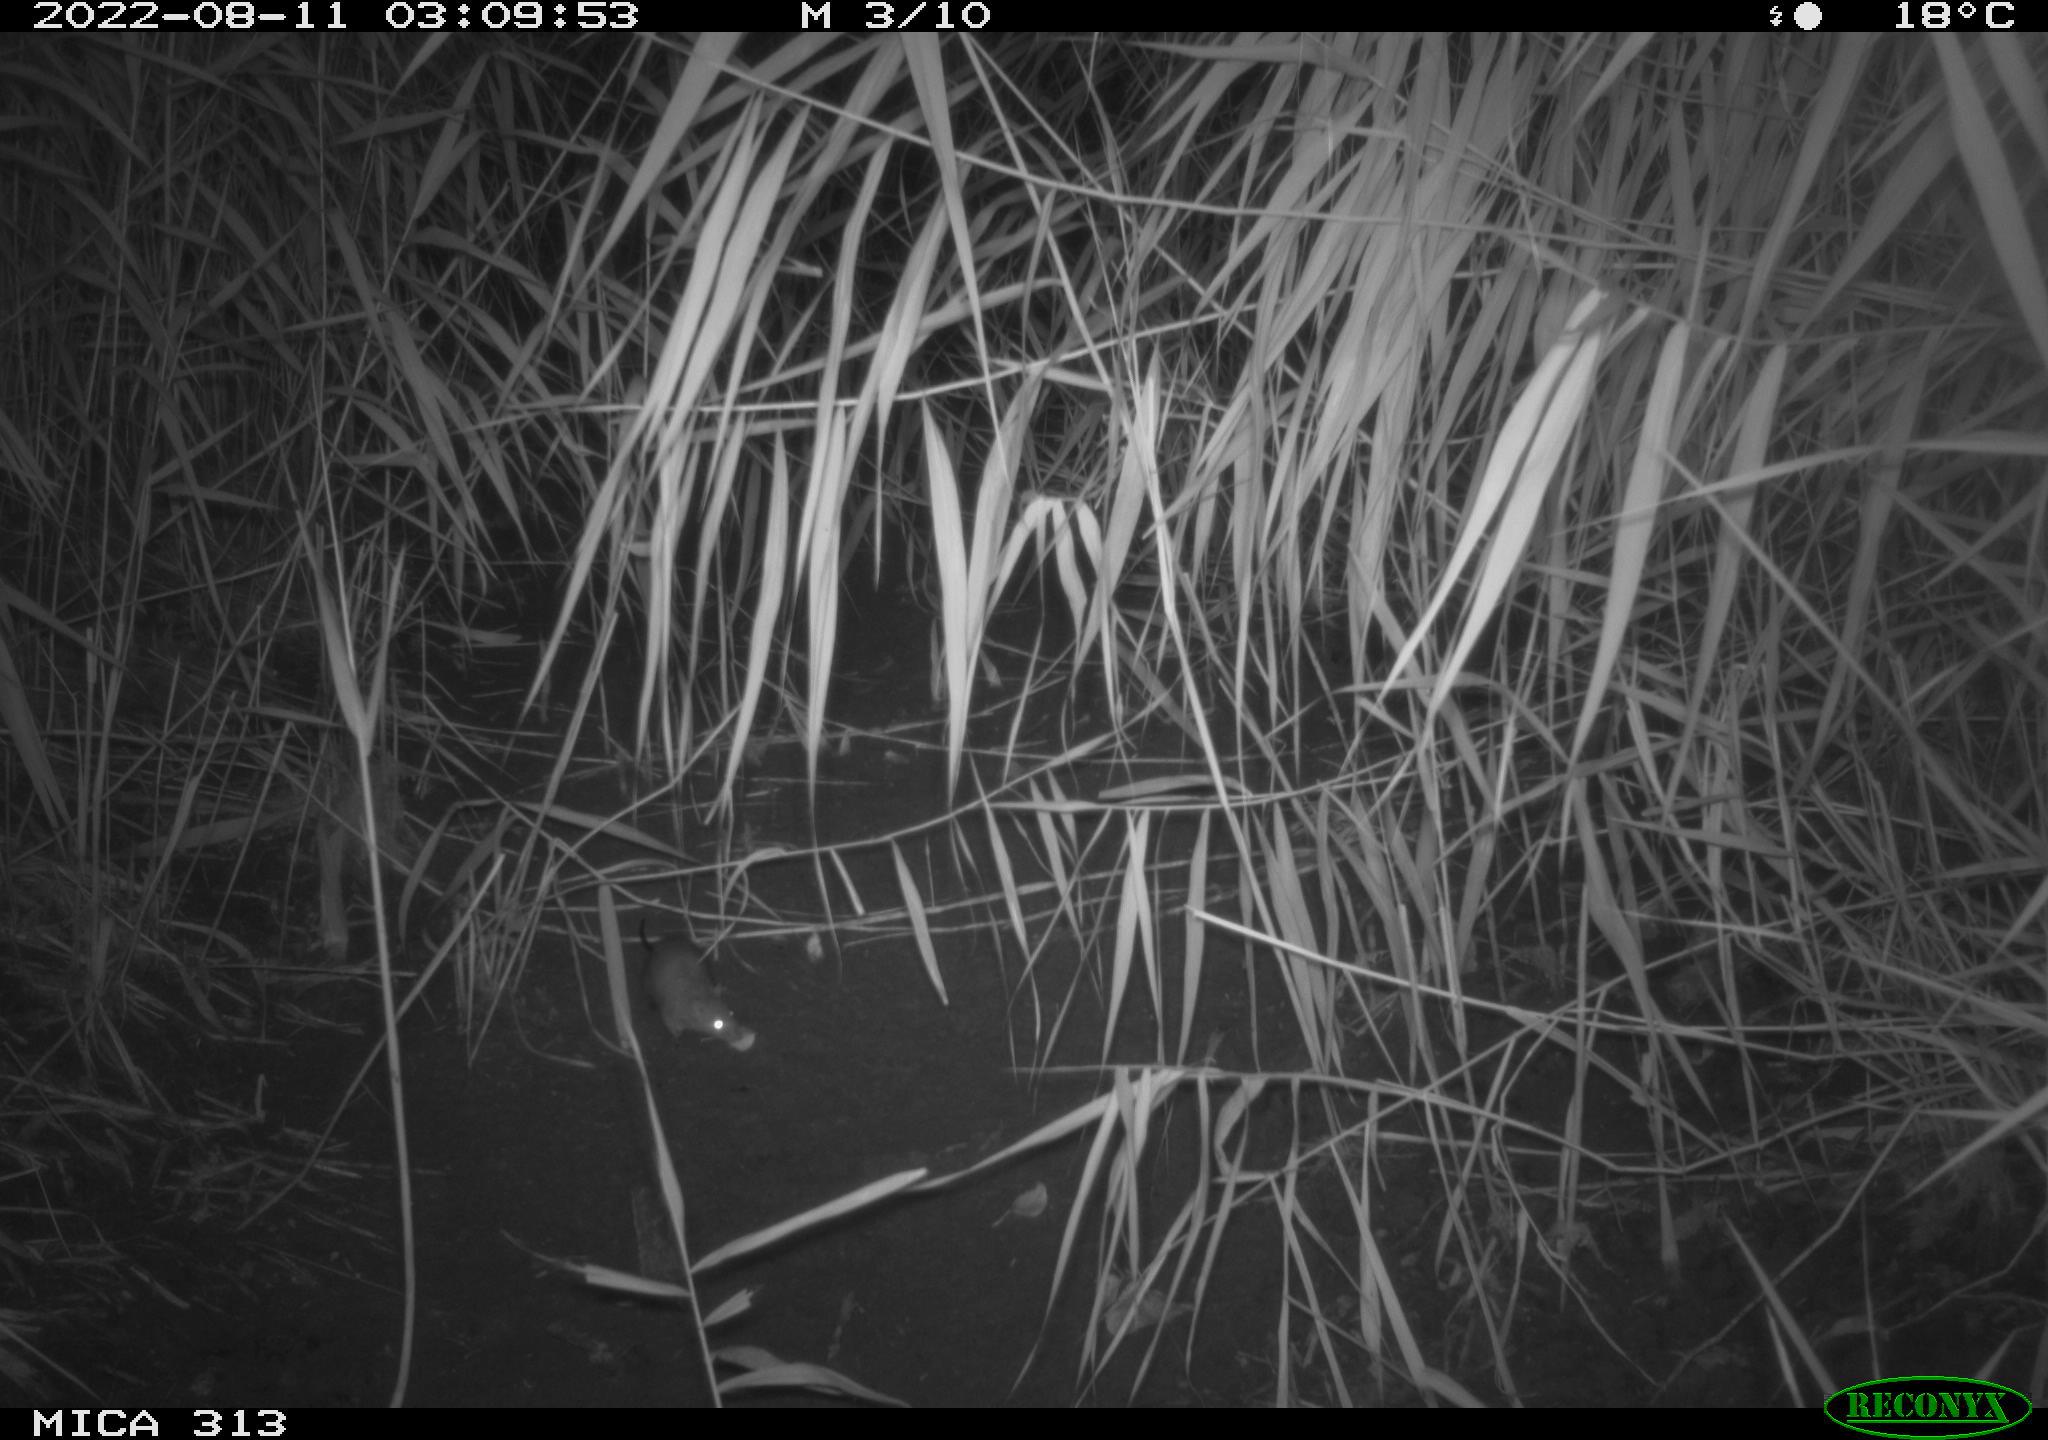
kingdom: Animalia
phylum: Chordata
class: Mammalia
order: Rodentia
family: Muridae
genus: Rattus
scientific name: Rattus norvegicus
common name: Brown rat
